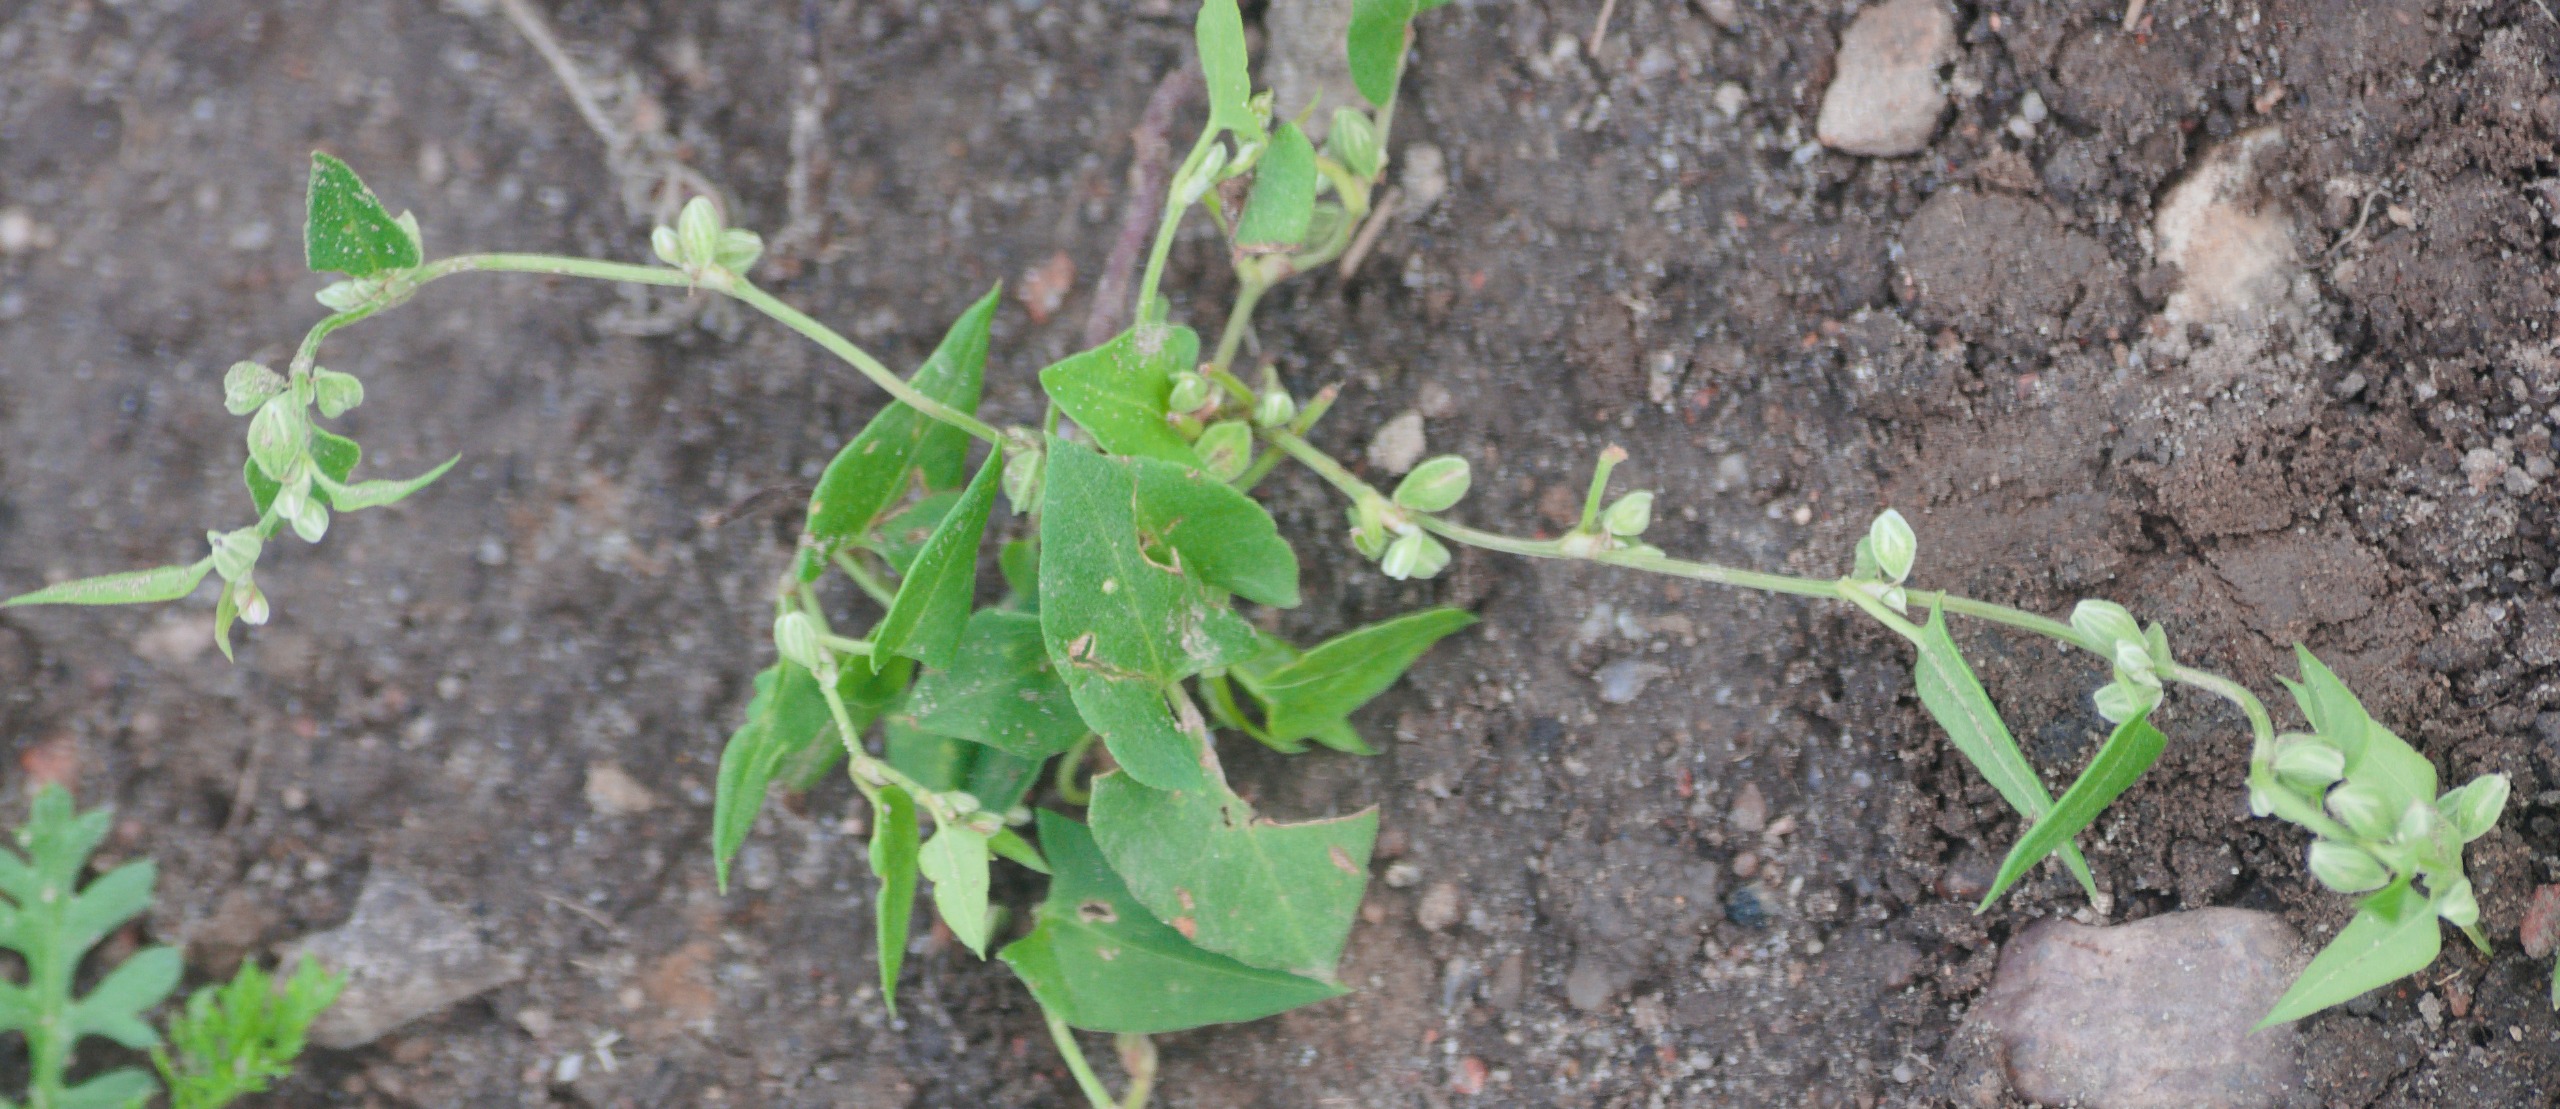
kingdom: Plantae
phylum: Tracheophyta
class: Magnoliopsida
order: Caryophyllales
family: Polygonaceae
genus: Fallopia
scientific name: Fallopia convolvulus
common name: Snerle-pileurt
